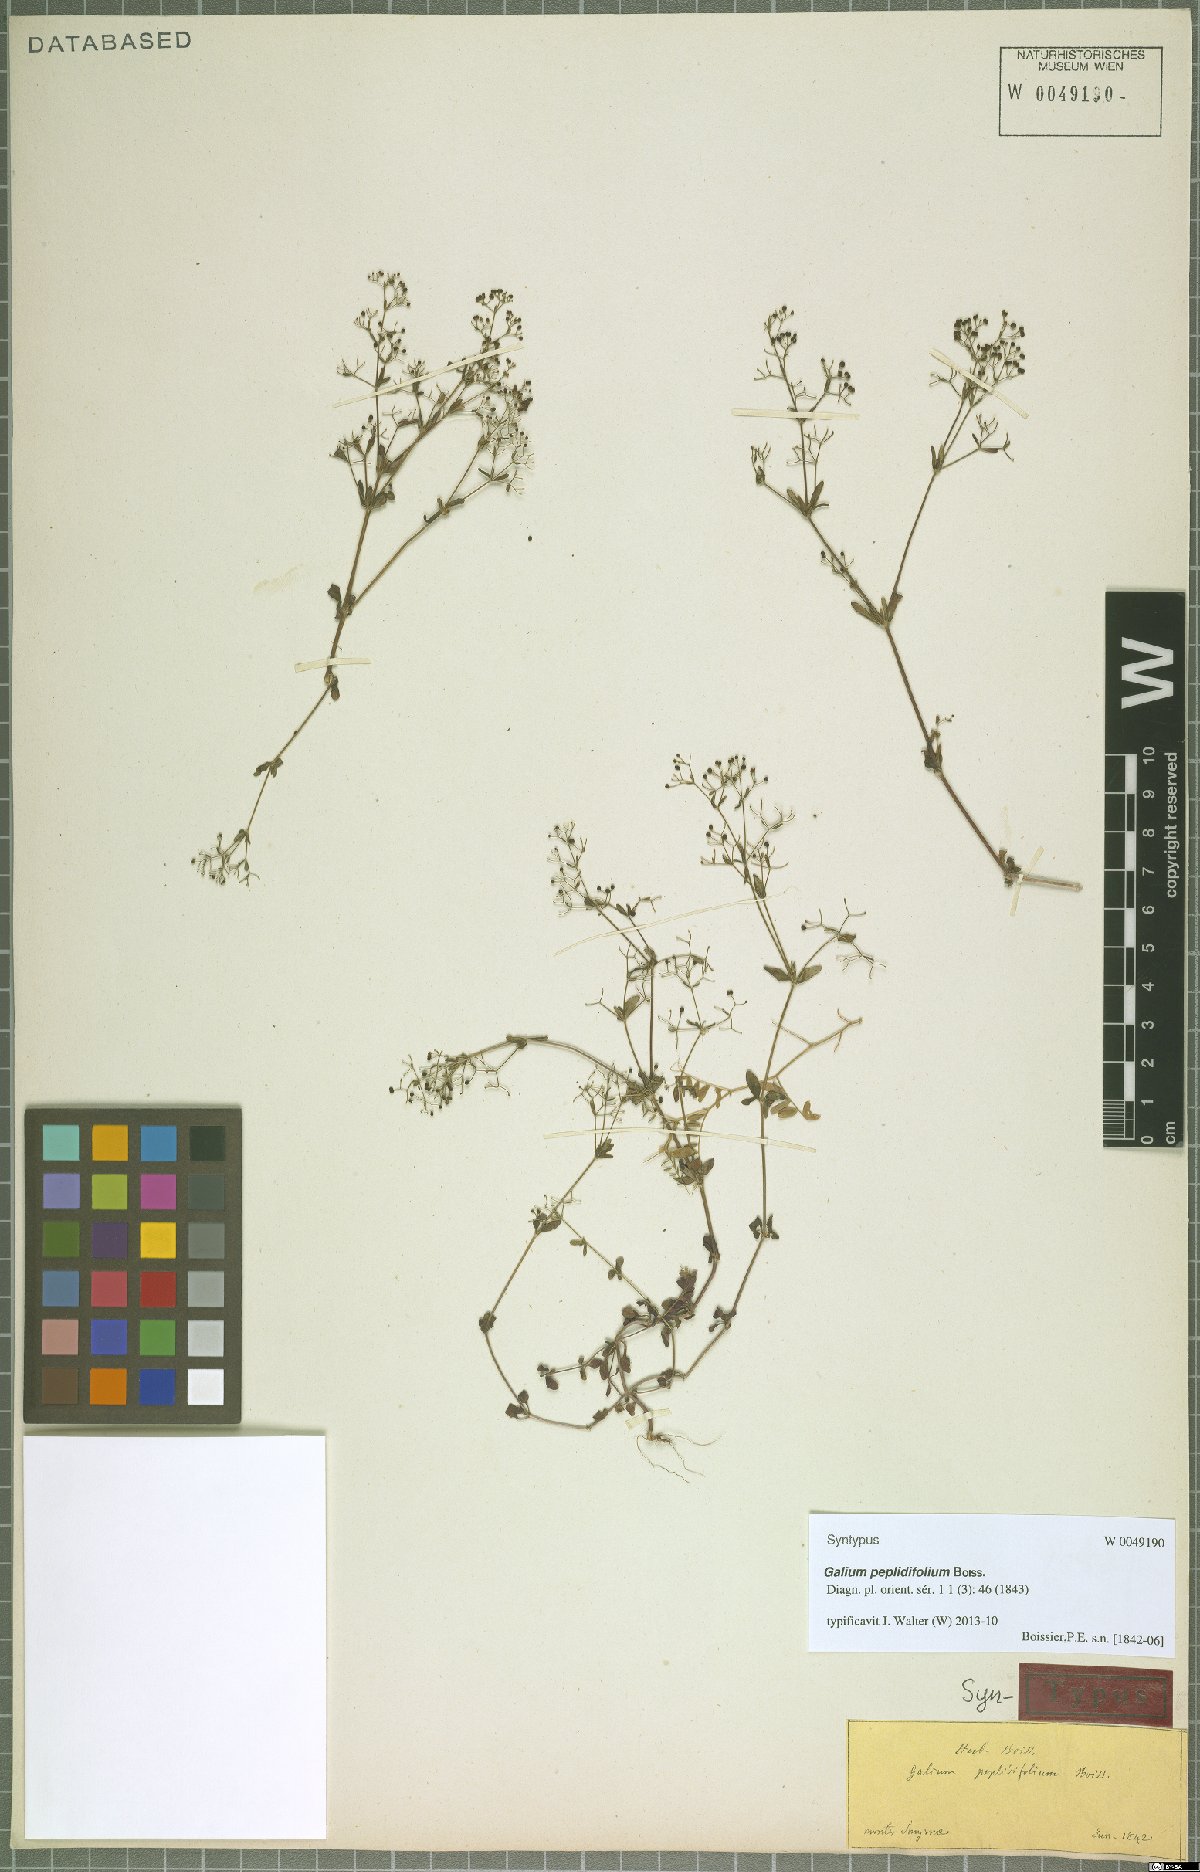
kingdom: Plantae
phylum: Tracheophyta
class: Magnoliopsida
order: Gentianales
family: Rubiaceae
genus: Galium
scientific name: Galium peplidifolium
